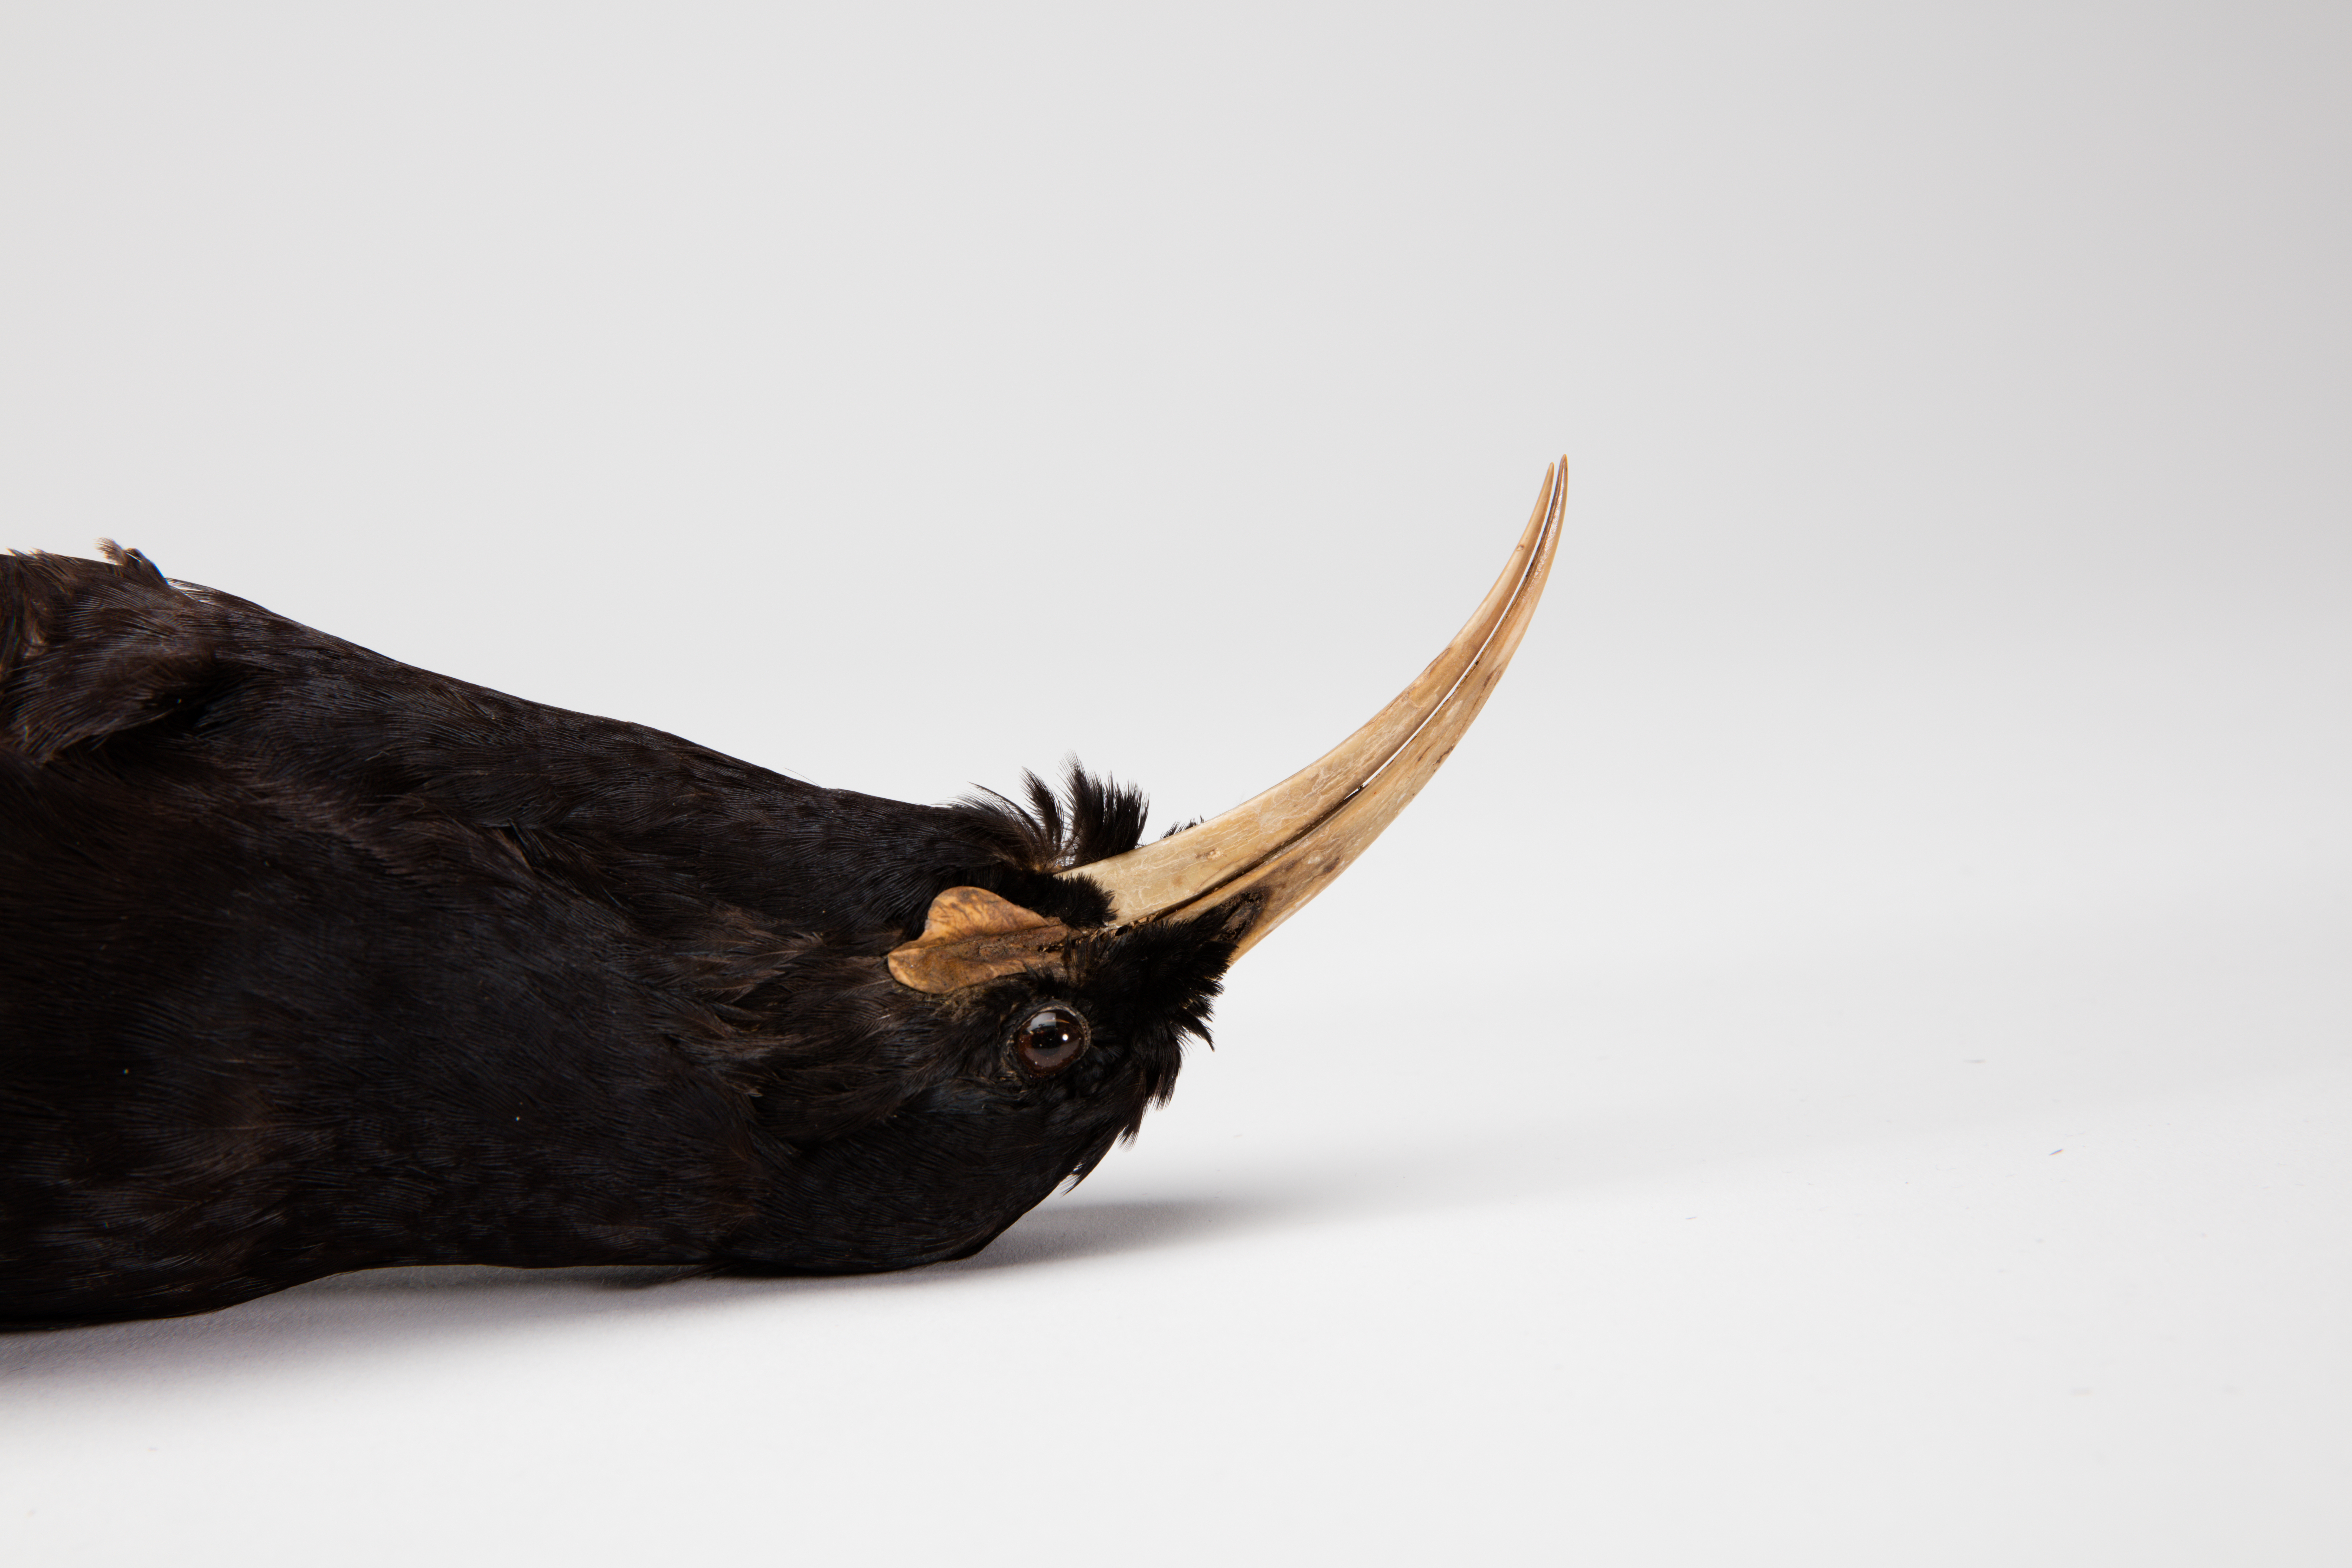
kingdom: Animalia
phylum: Chordata
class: Aves
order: Passeriformes
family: Callaeatidae
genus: Heteralocha
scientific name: Heteralocha acutirostris
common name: Huia
